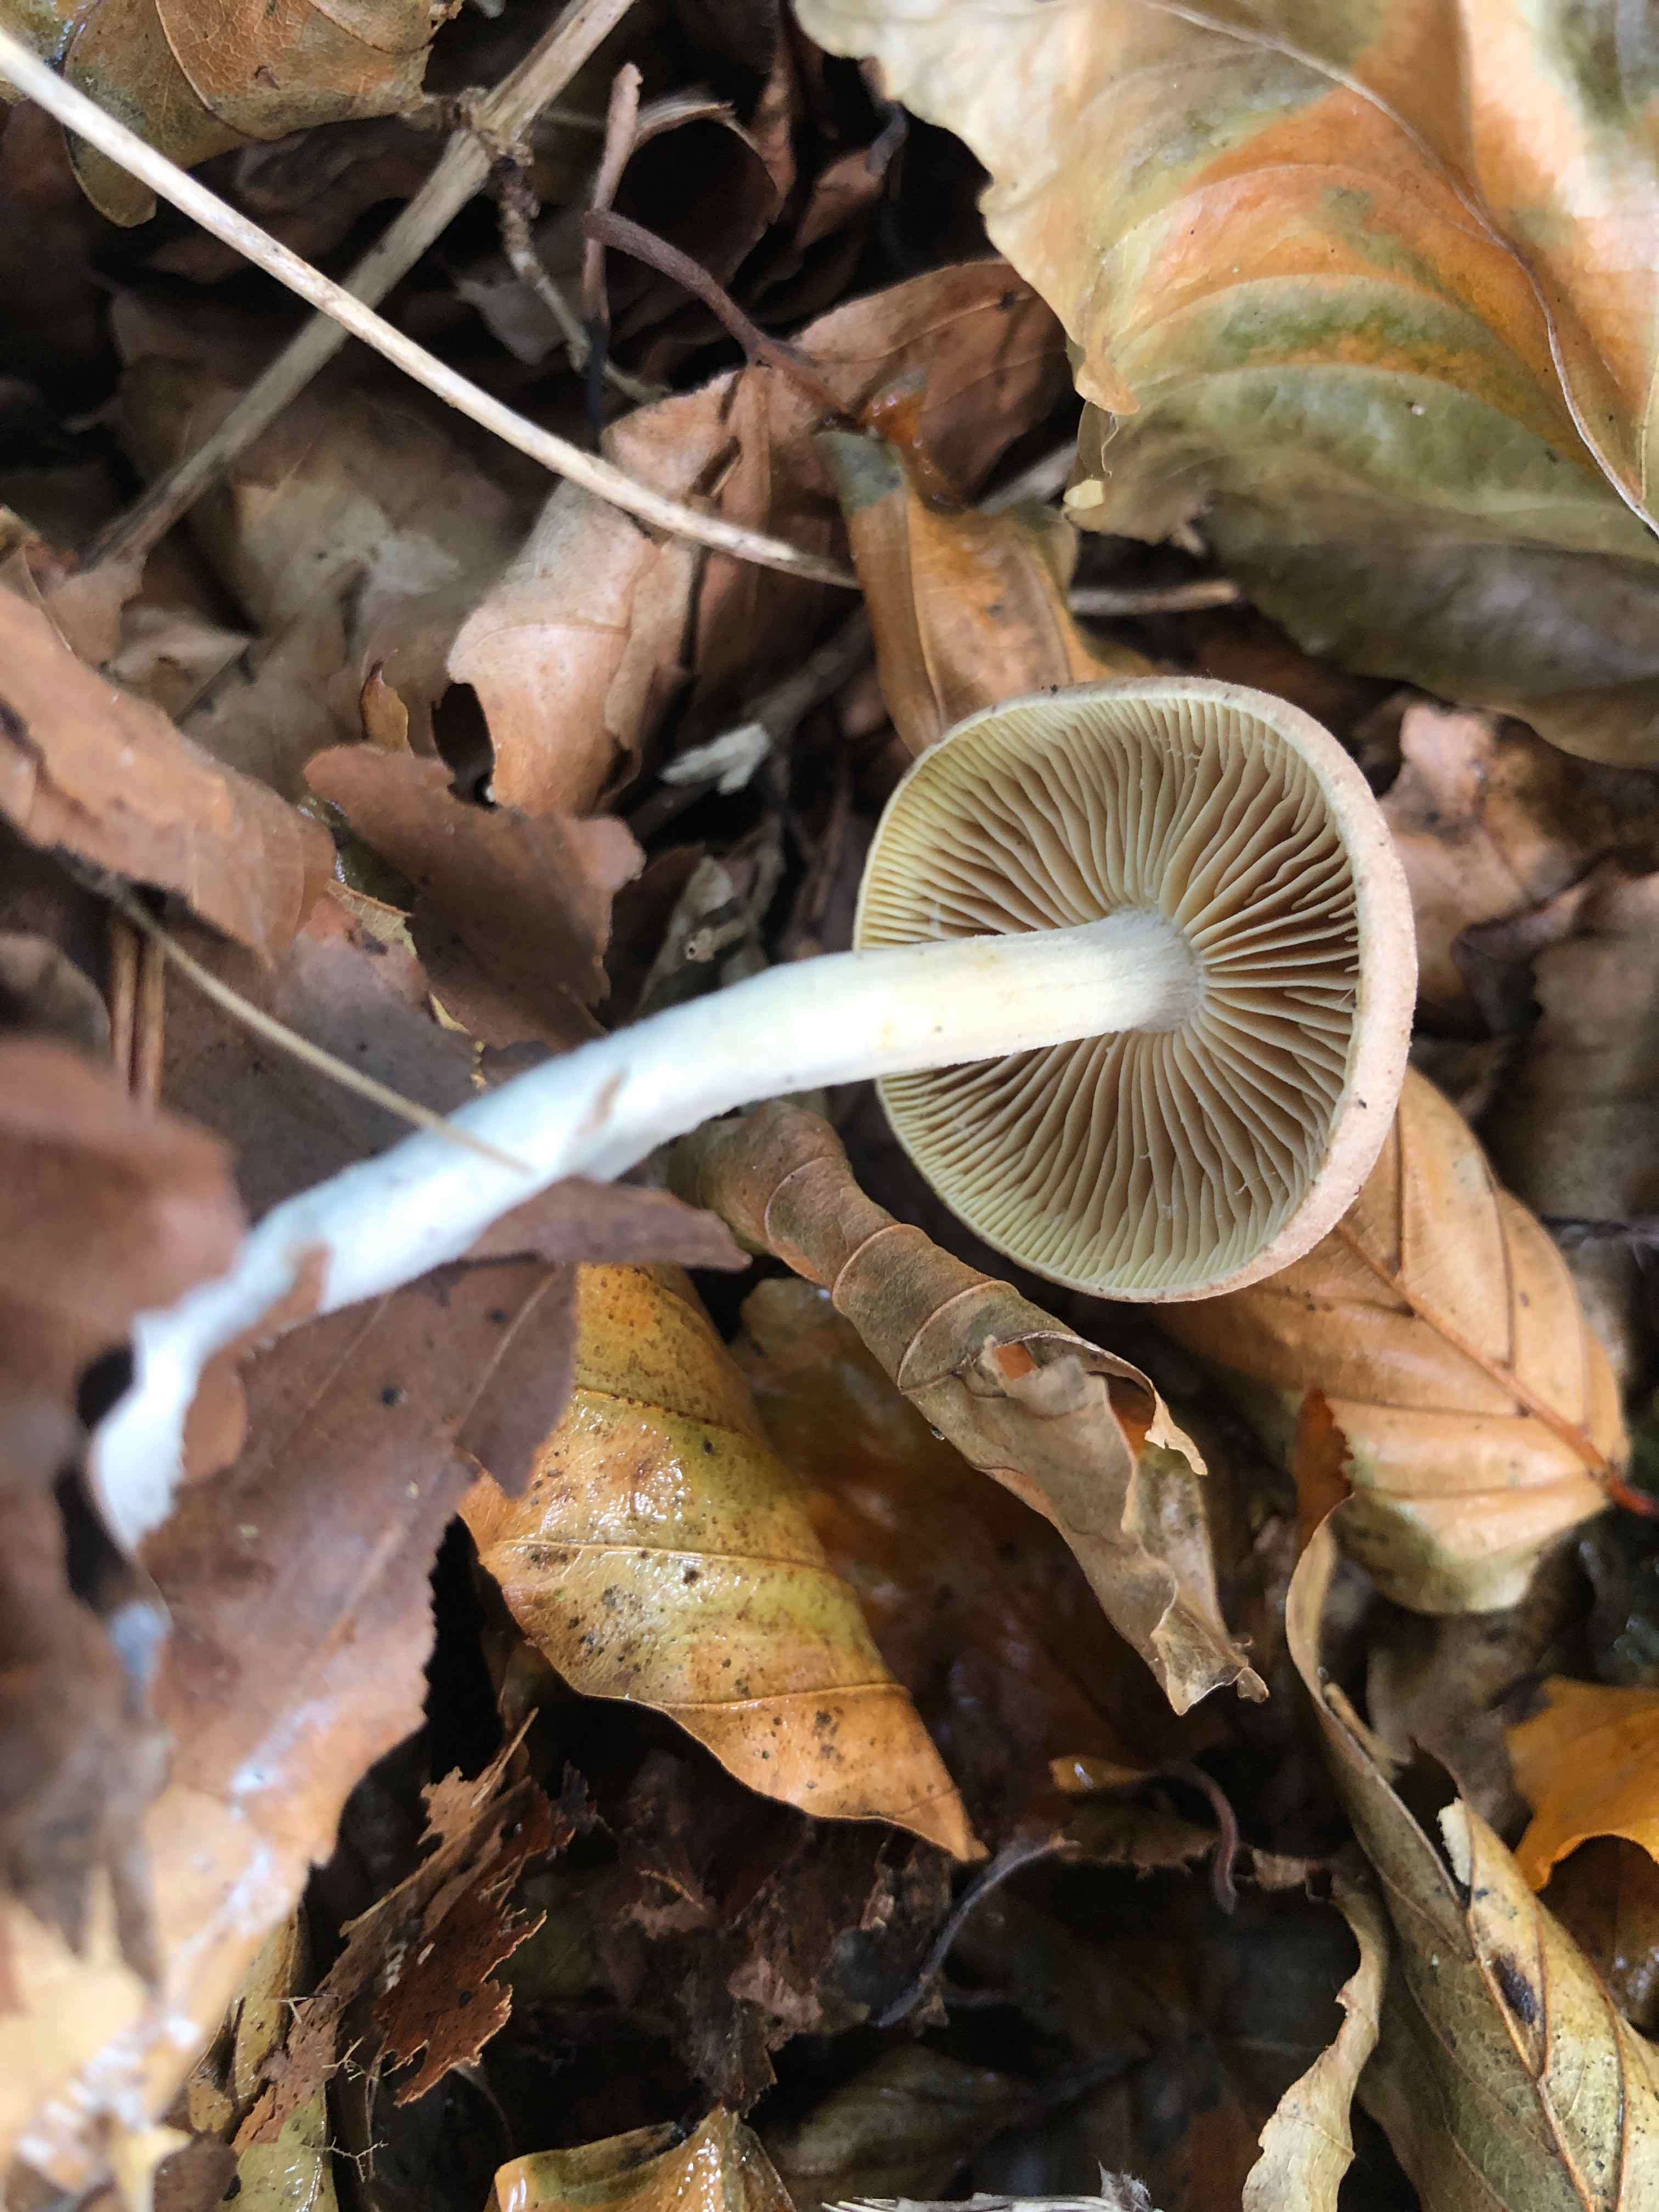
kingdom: Fungi
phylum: Basidiomycota
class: Agaricomycetes
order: Agaricales
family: Omphalotaceae
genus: Collybiopsis
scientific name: Collybiopsis peronata
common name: bestøvlet fladhat
